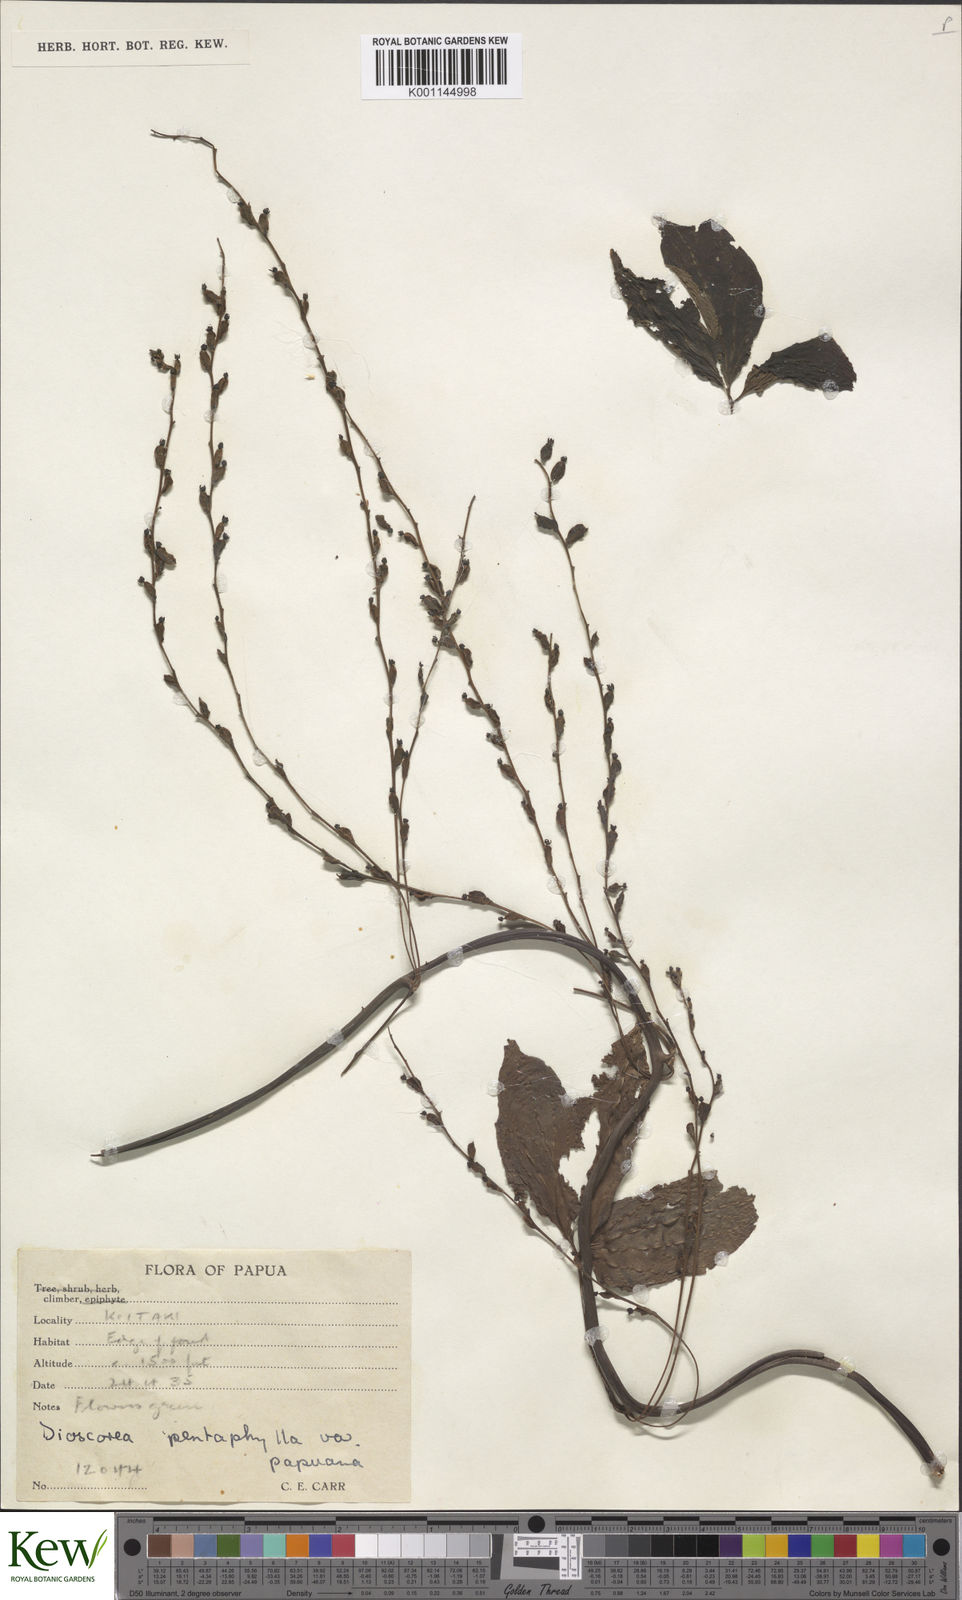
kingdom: Plantae
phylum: Tracheophyta
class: Liliopsida
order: Dioscoreales
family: Dioscoreaceae
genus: Dioscorea
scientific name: Dioscorea pentaphylla
